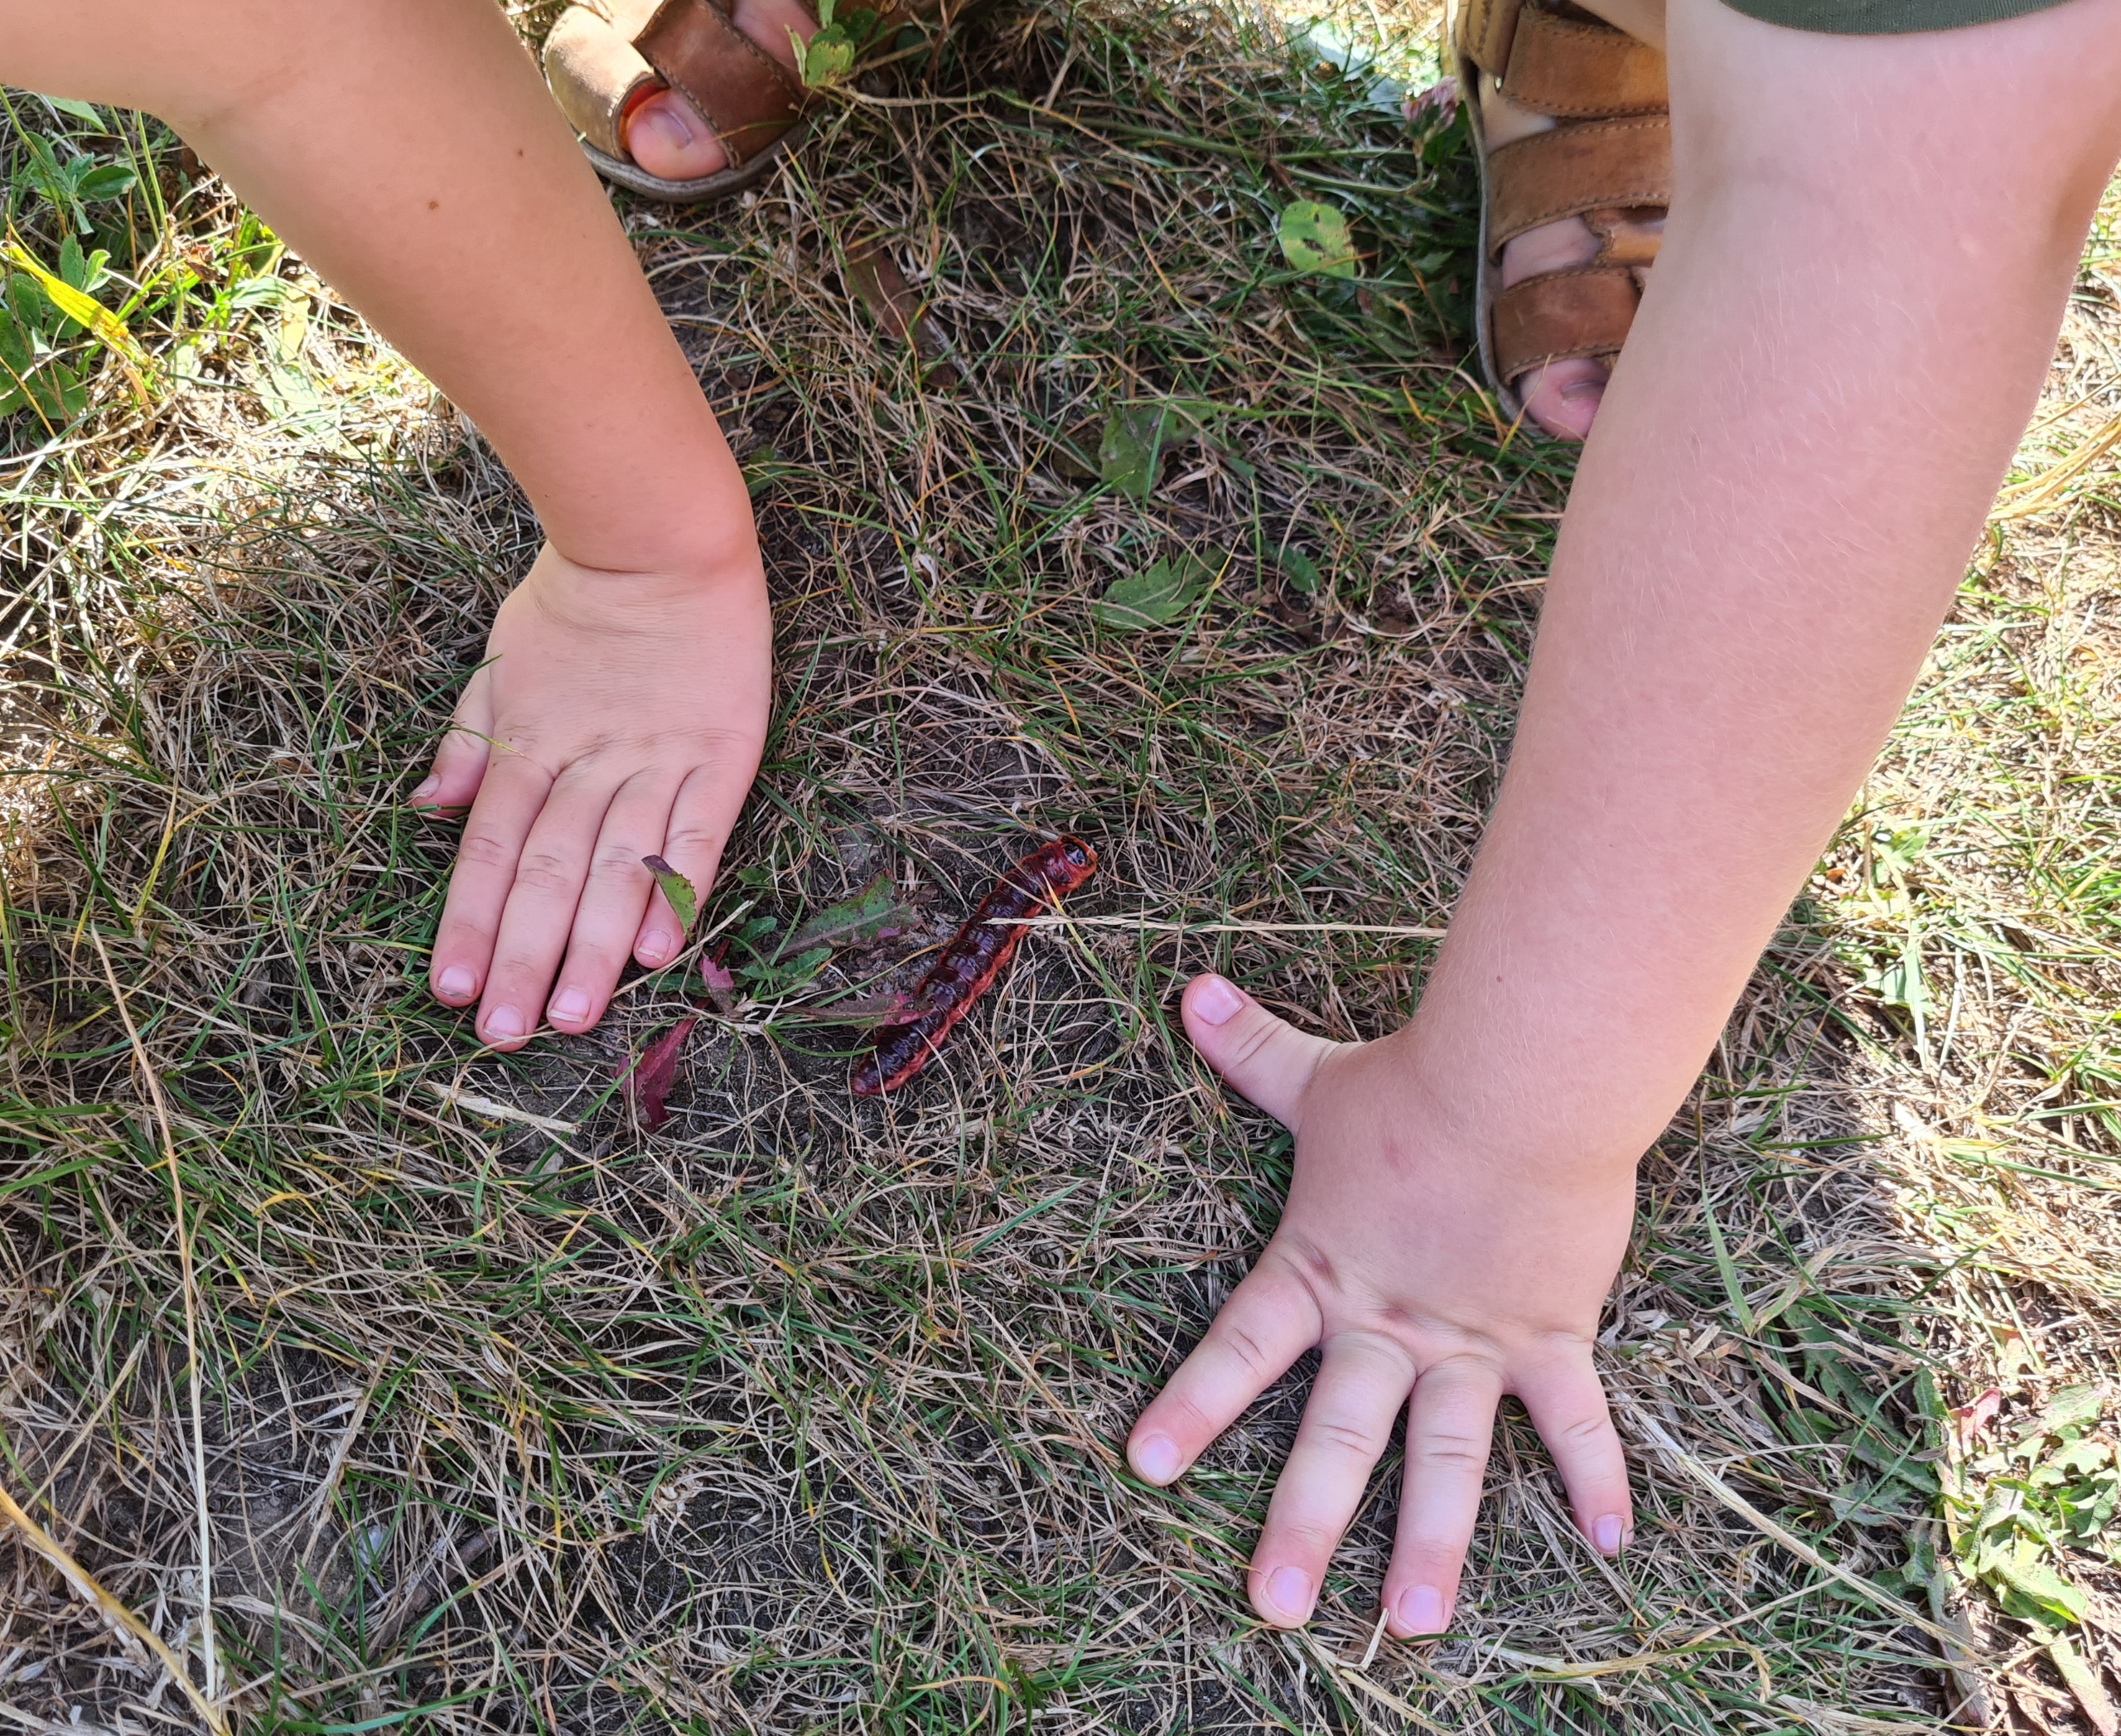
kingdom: Animalia
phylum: Arthropoda
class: Insecta
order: Lepidoptera
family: Cossidae
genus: Cossus
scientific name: Cossus cossus
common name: Pileborer
